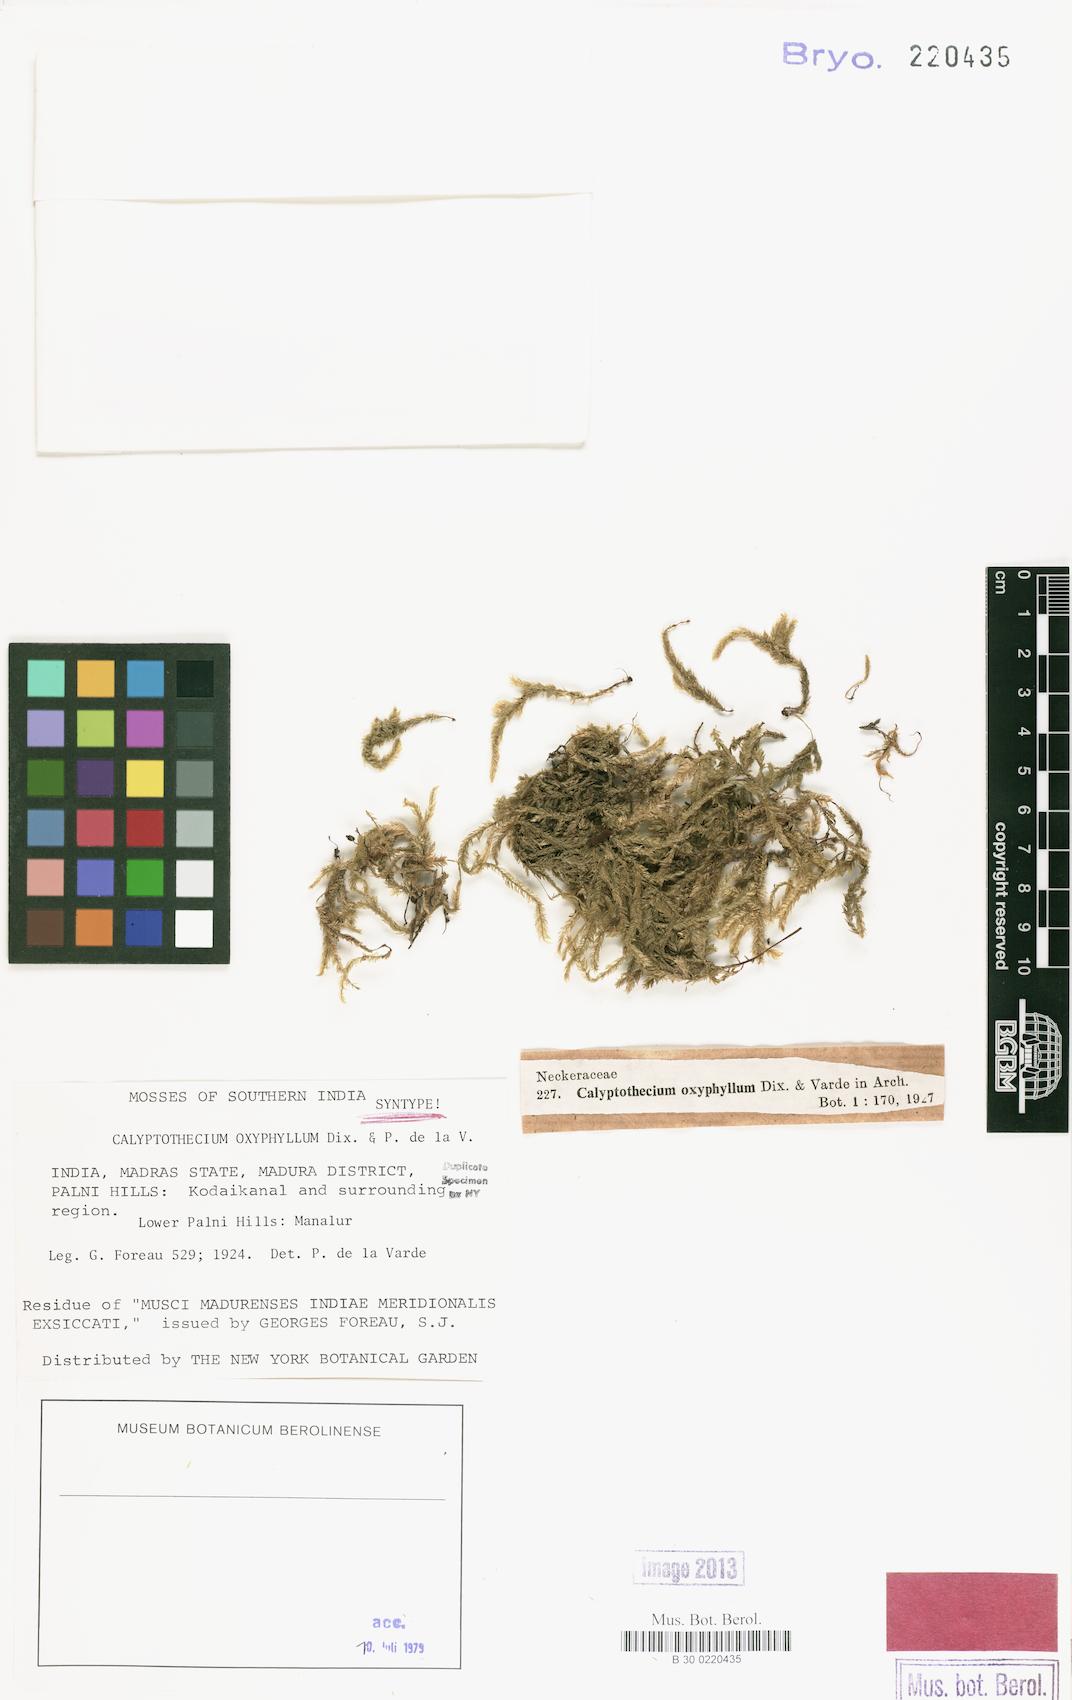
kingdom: Plantae
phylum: Bryophyta
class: Bryopsida
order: Hypnales
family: Pterobryaceae
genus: Calyptothecium
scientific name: Calyptothecium oxyphyllum
